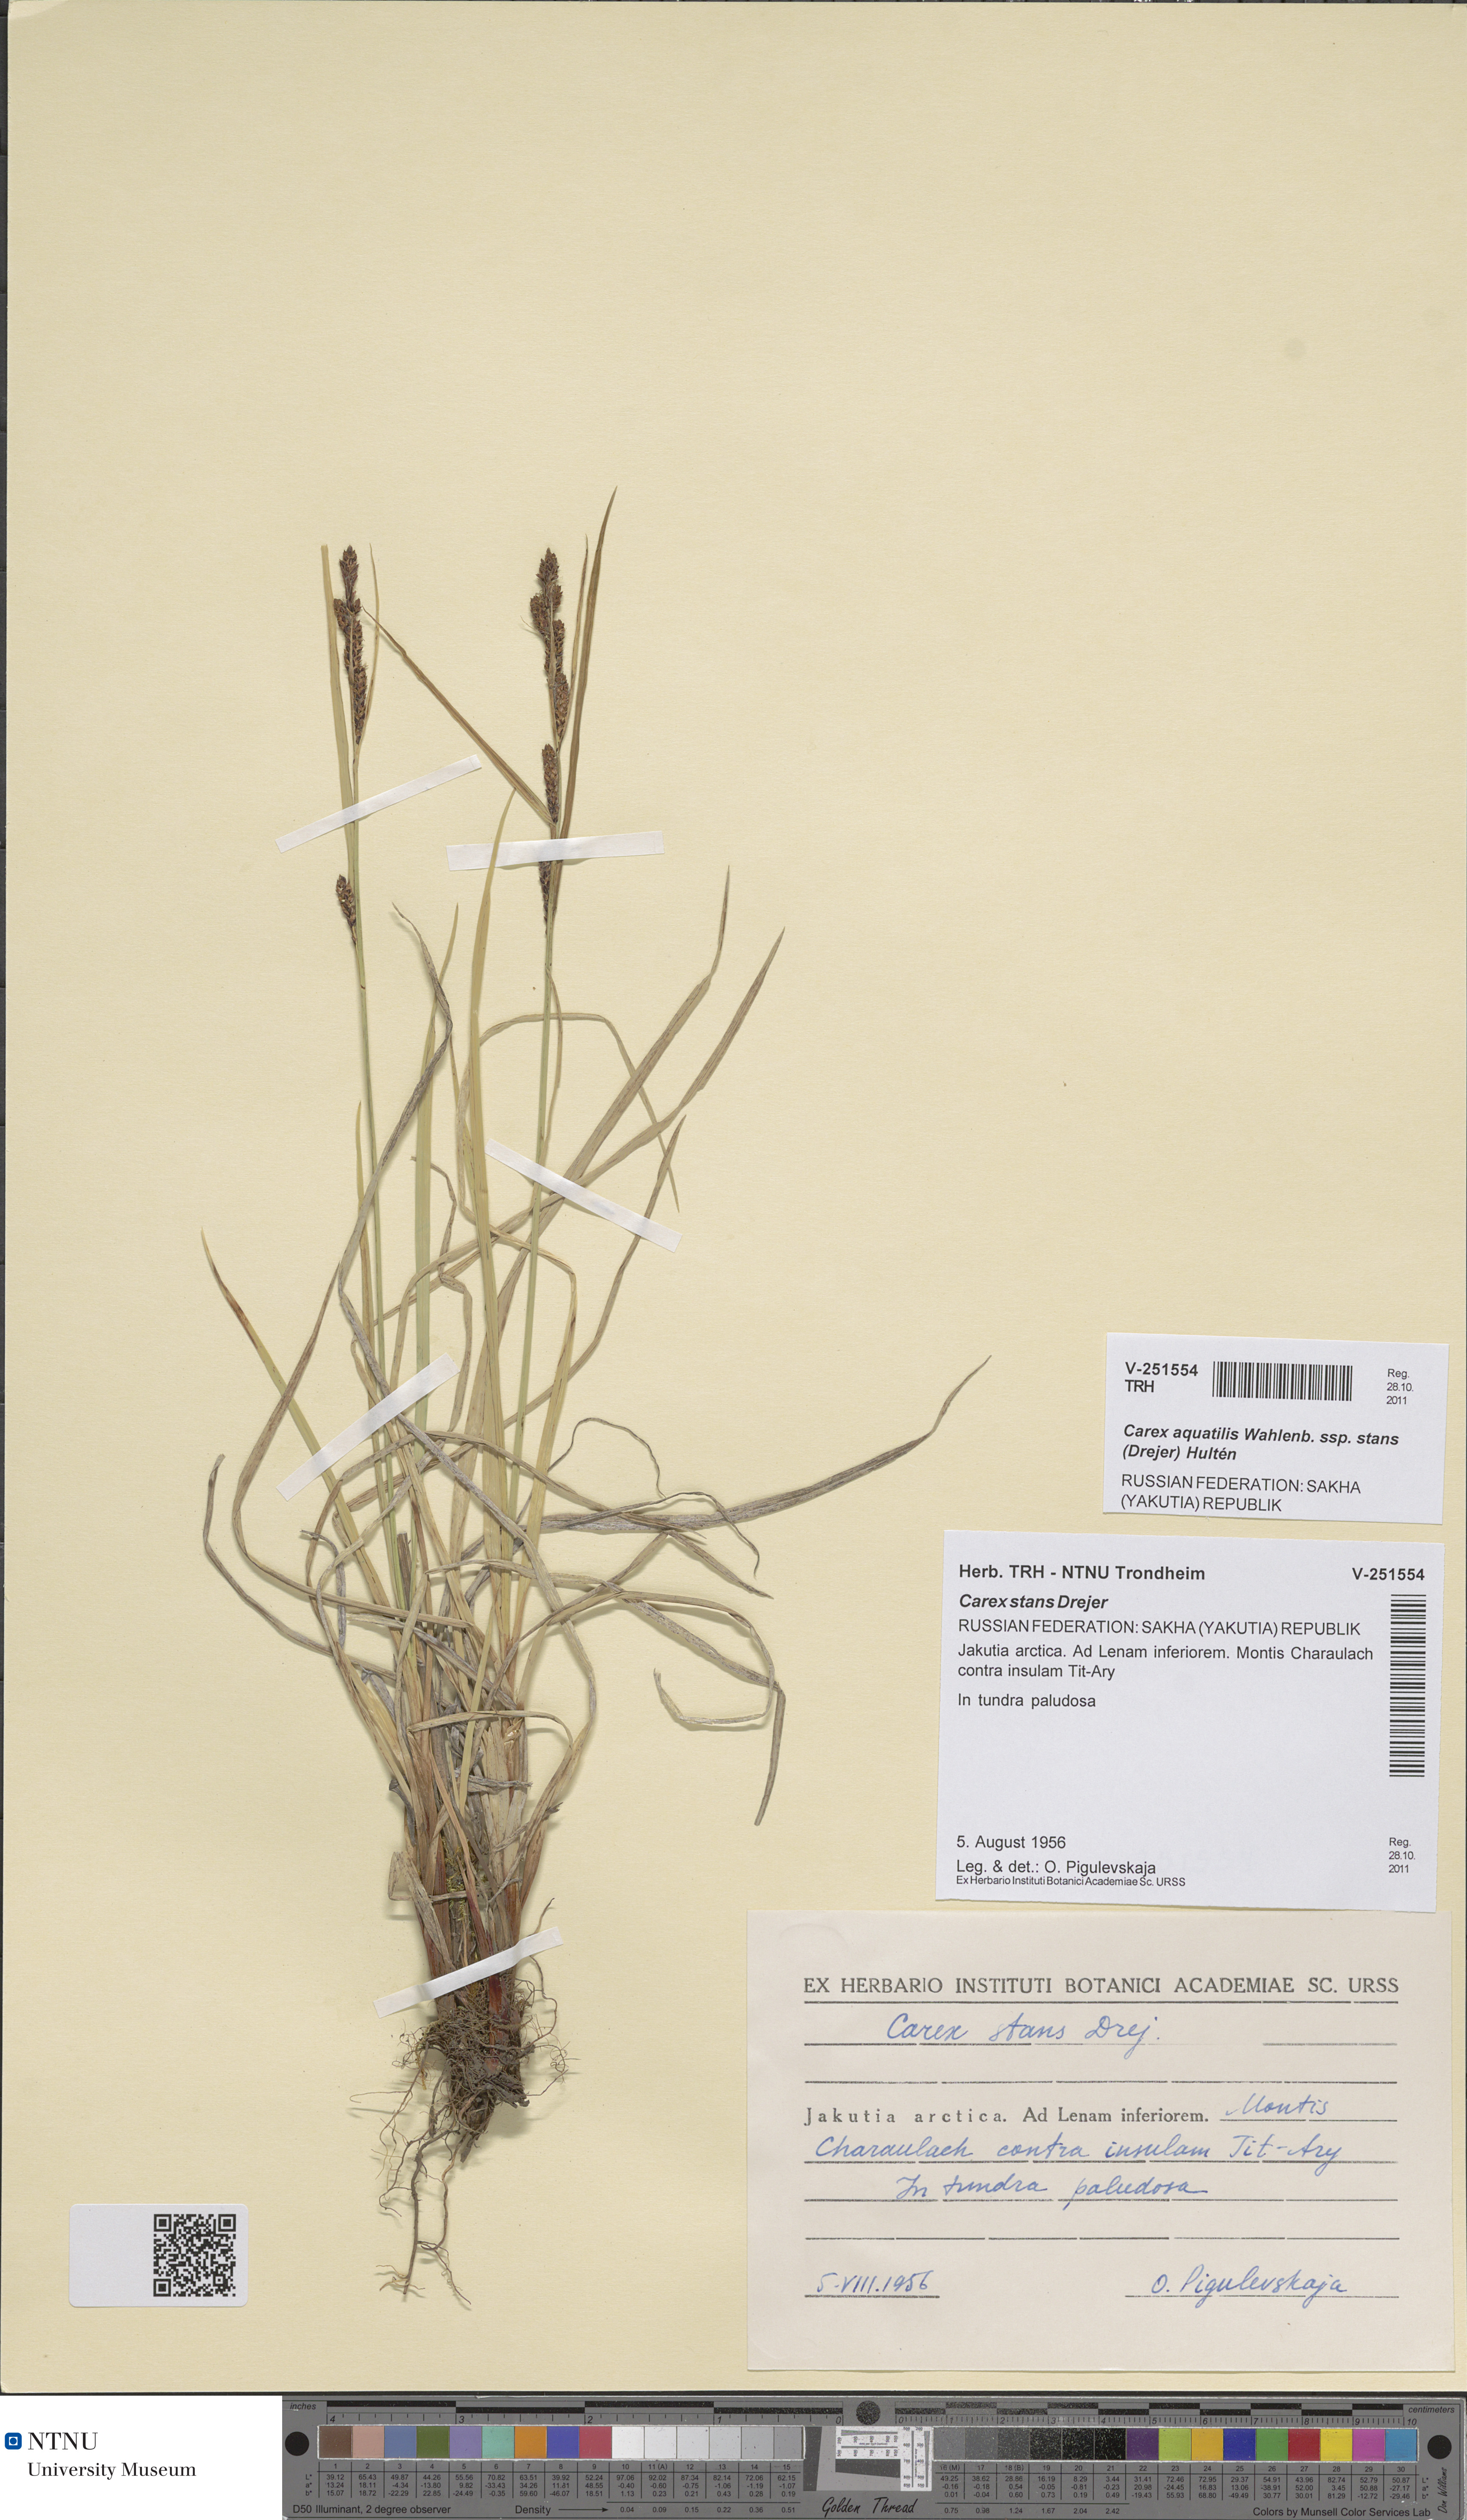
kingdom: Plantae
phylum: Tracheophyta
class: Liliopsida
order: Poales
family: Cyperaceae
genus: Carex
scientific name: Carex aquatilis
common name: Water sedge
